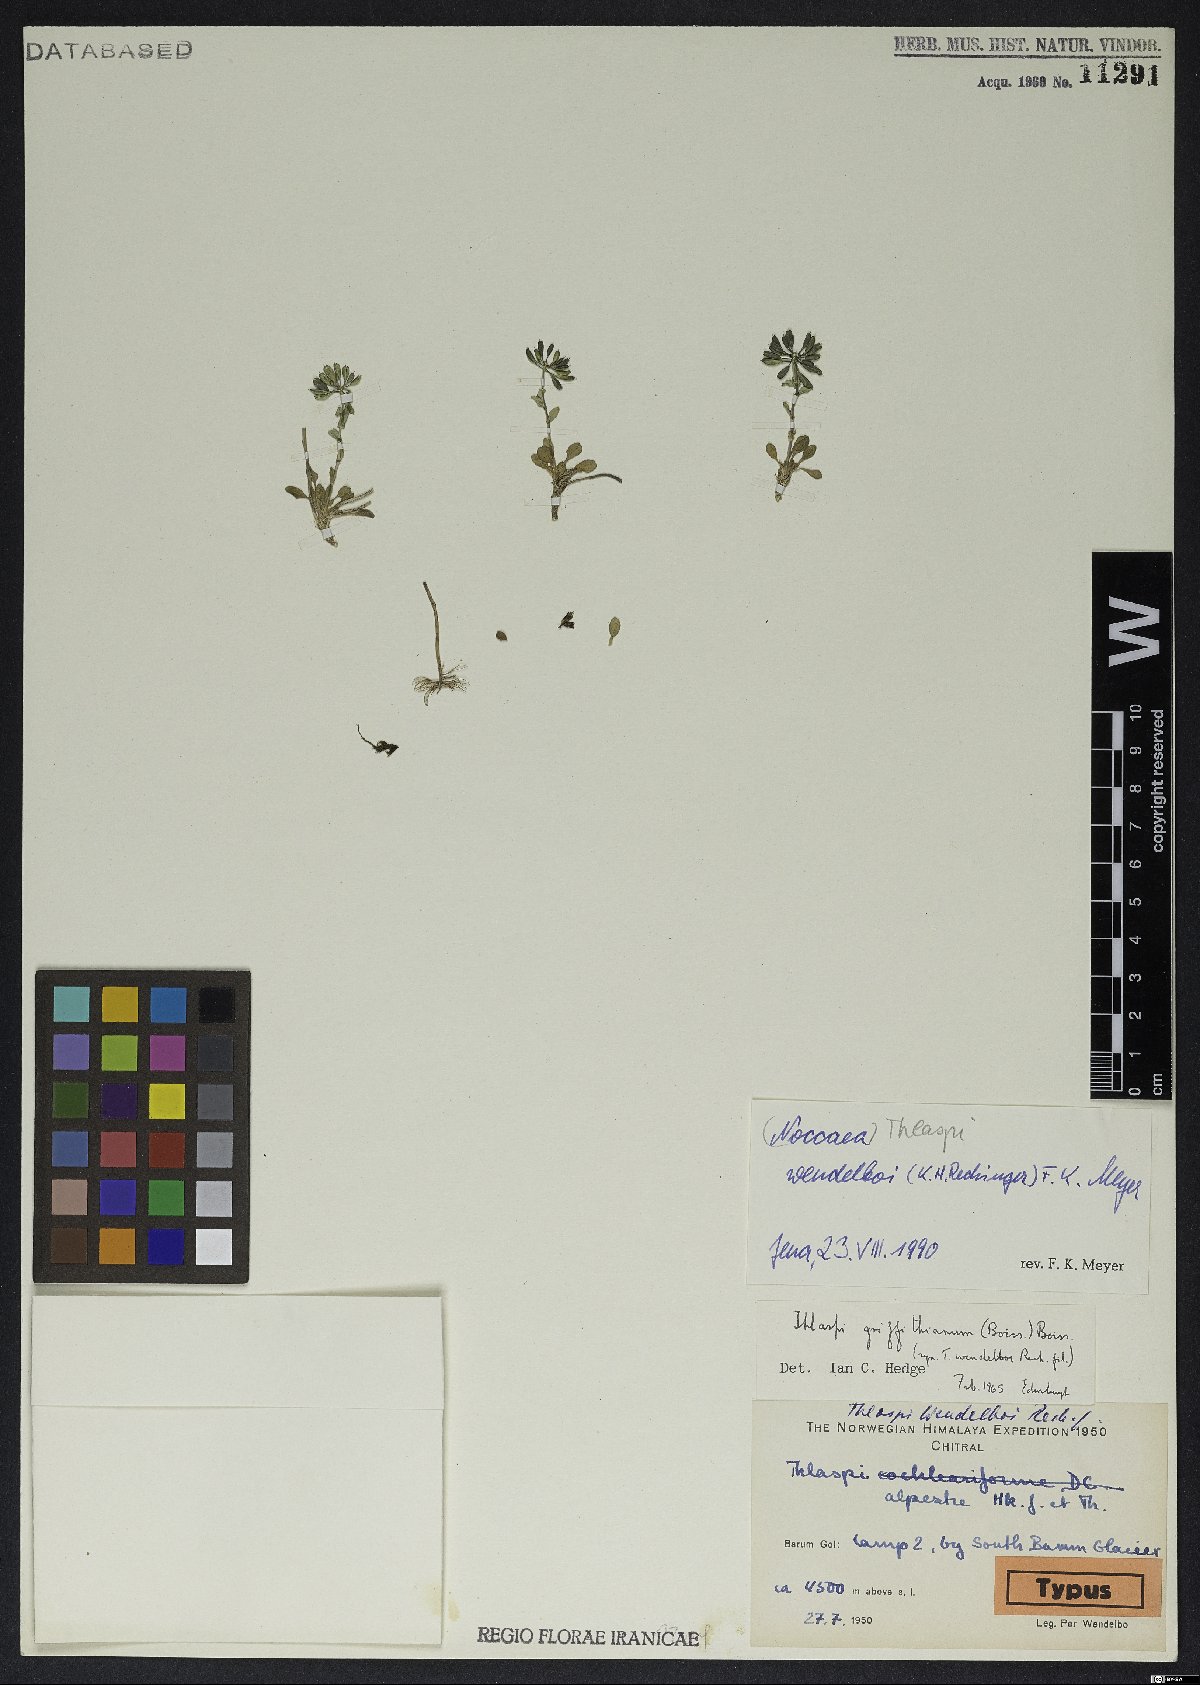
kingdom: Plantae
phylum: Tracheophyta
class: Magnoliopsida
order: Brassicales
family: Brassicaceae
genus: Noccaea
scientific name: Noccaea wendelboi
